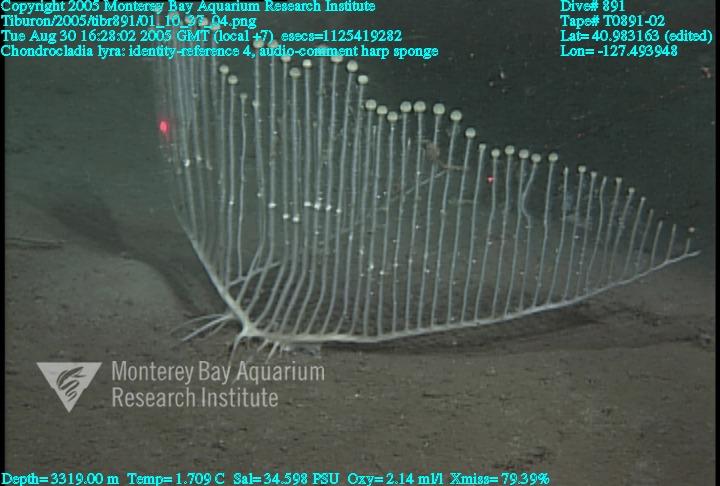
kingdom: Animalia
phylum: Porifera
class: Demospongiae
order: Poecilosclerida
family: Cladorhizidae
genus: Chondrocladia
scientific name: Chondrocladia lyra
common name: Harp sponge
